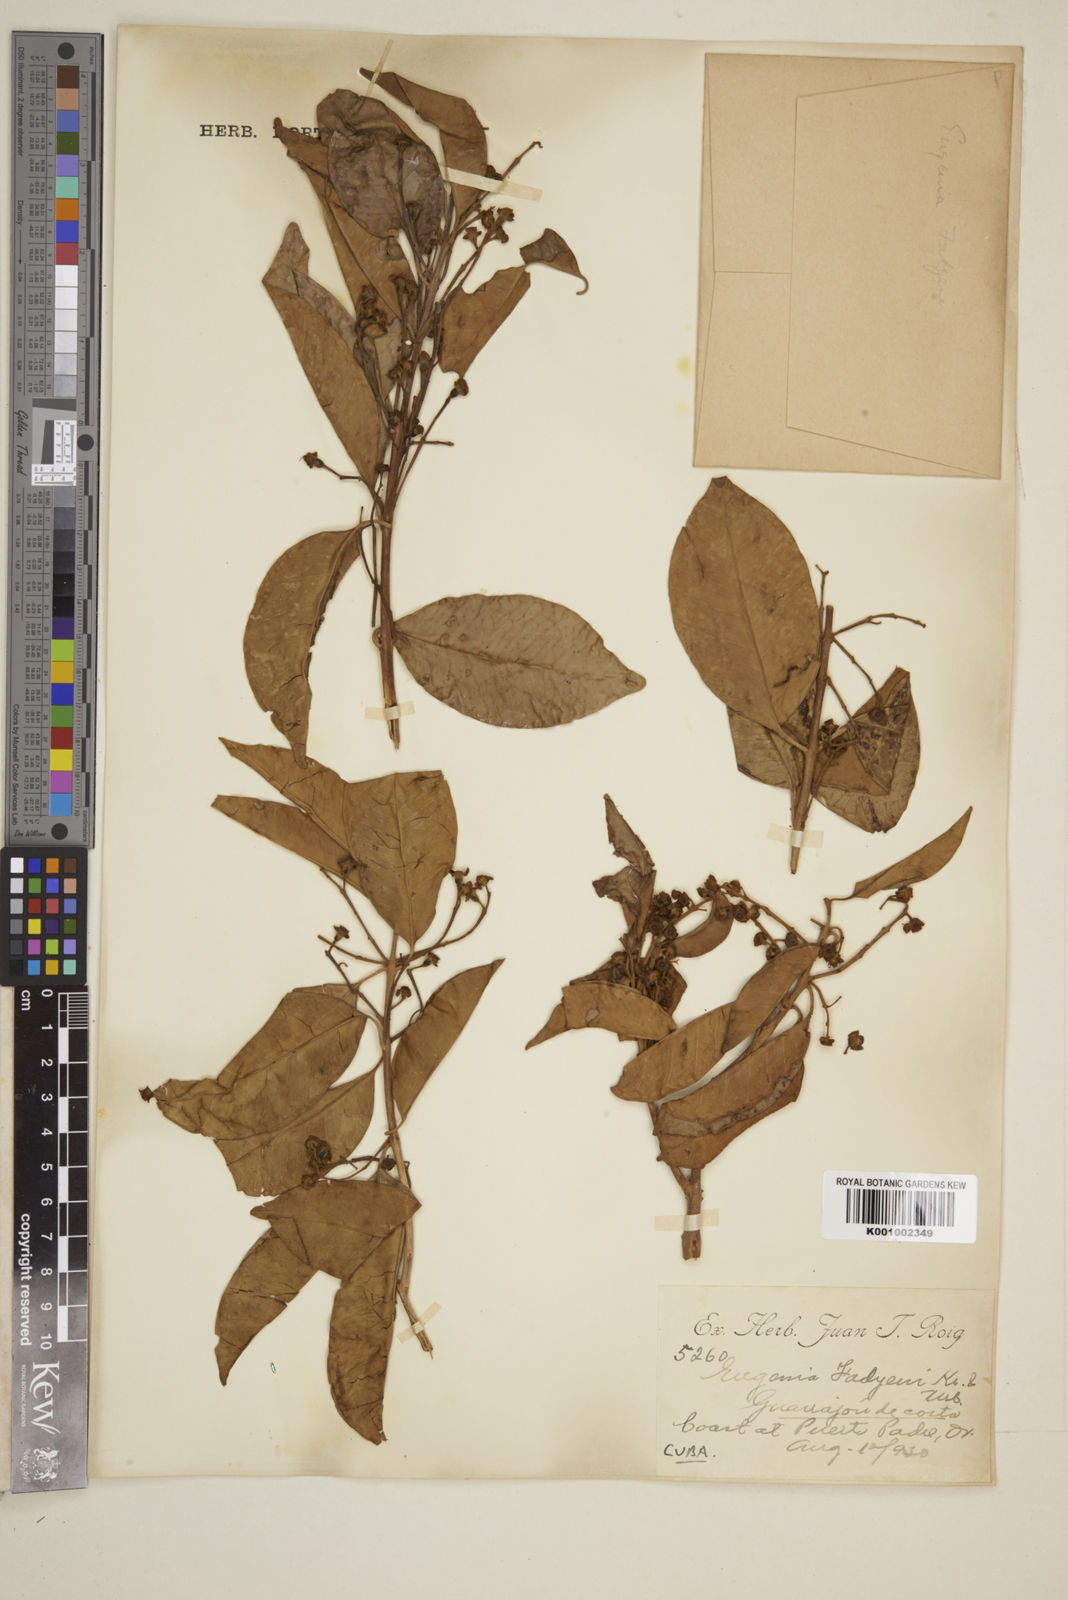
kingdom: Plantae
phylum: Tracheophyta
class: Magnoliopsida
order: Myrtales
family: Myrtaceae
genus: Eugenia
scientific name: Eugenia aeruginea
